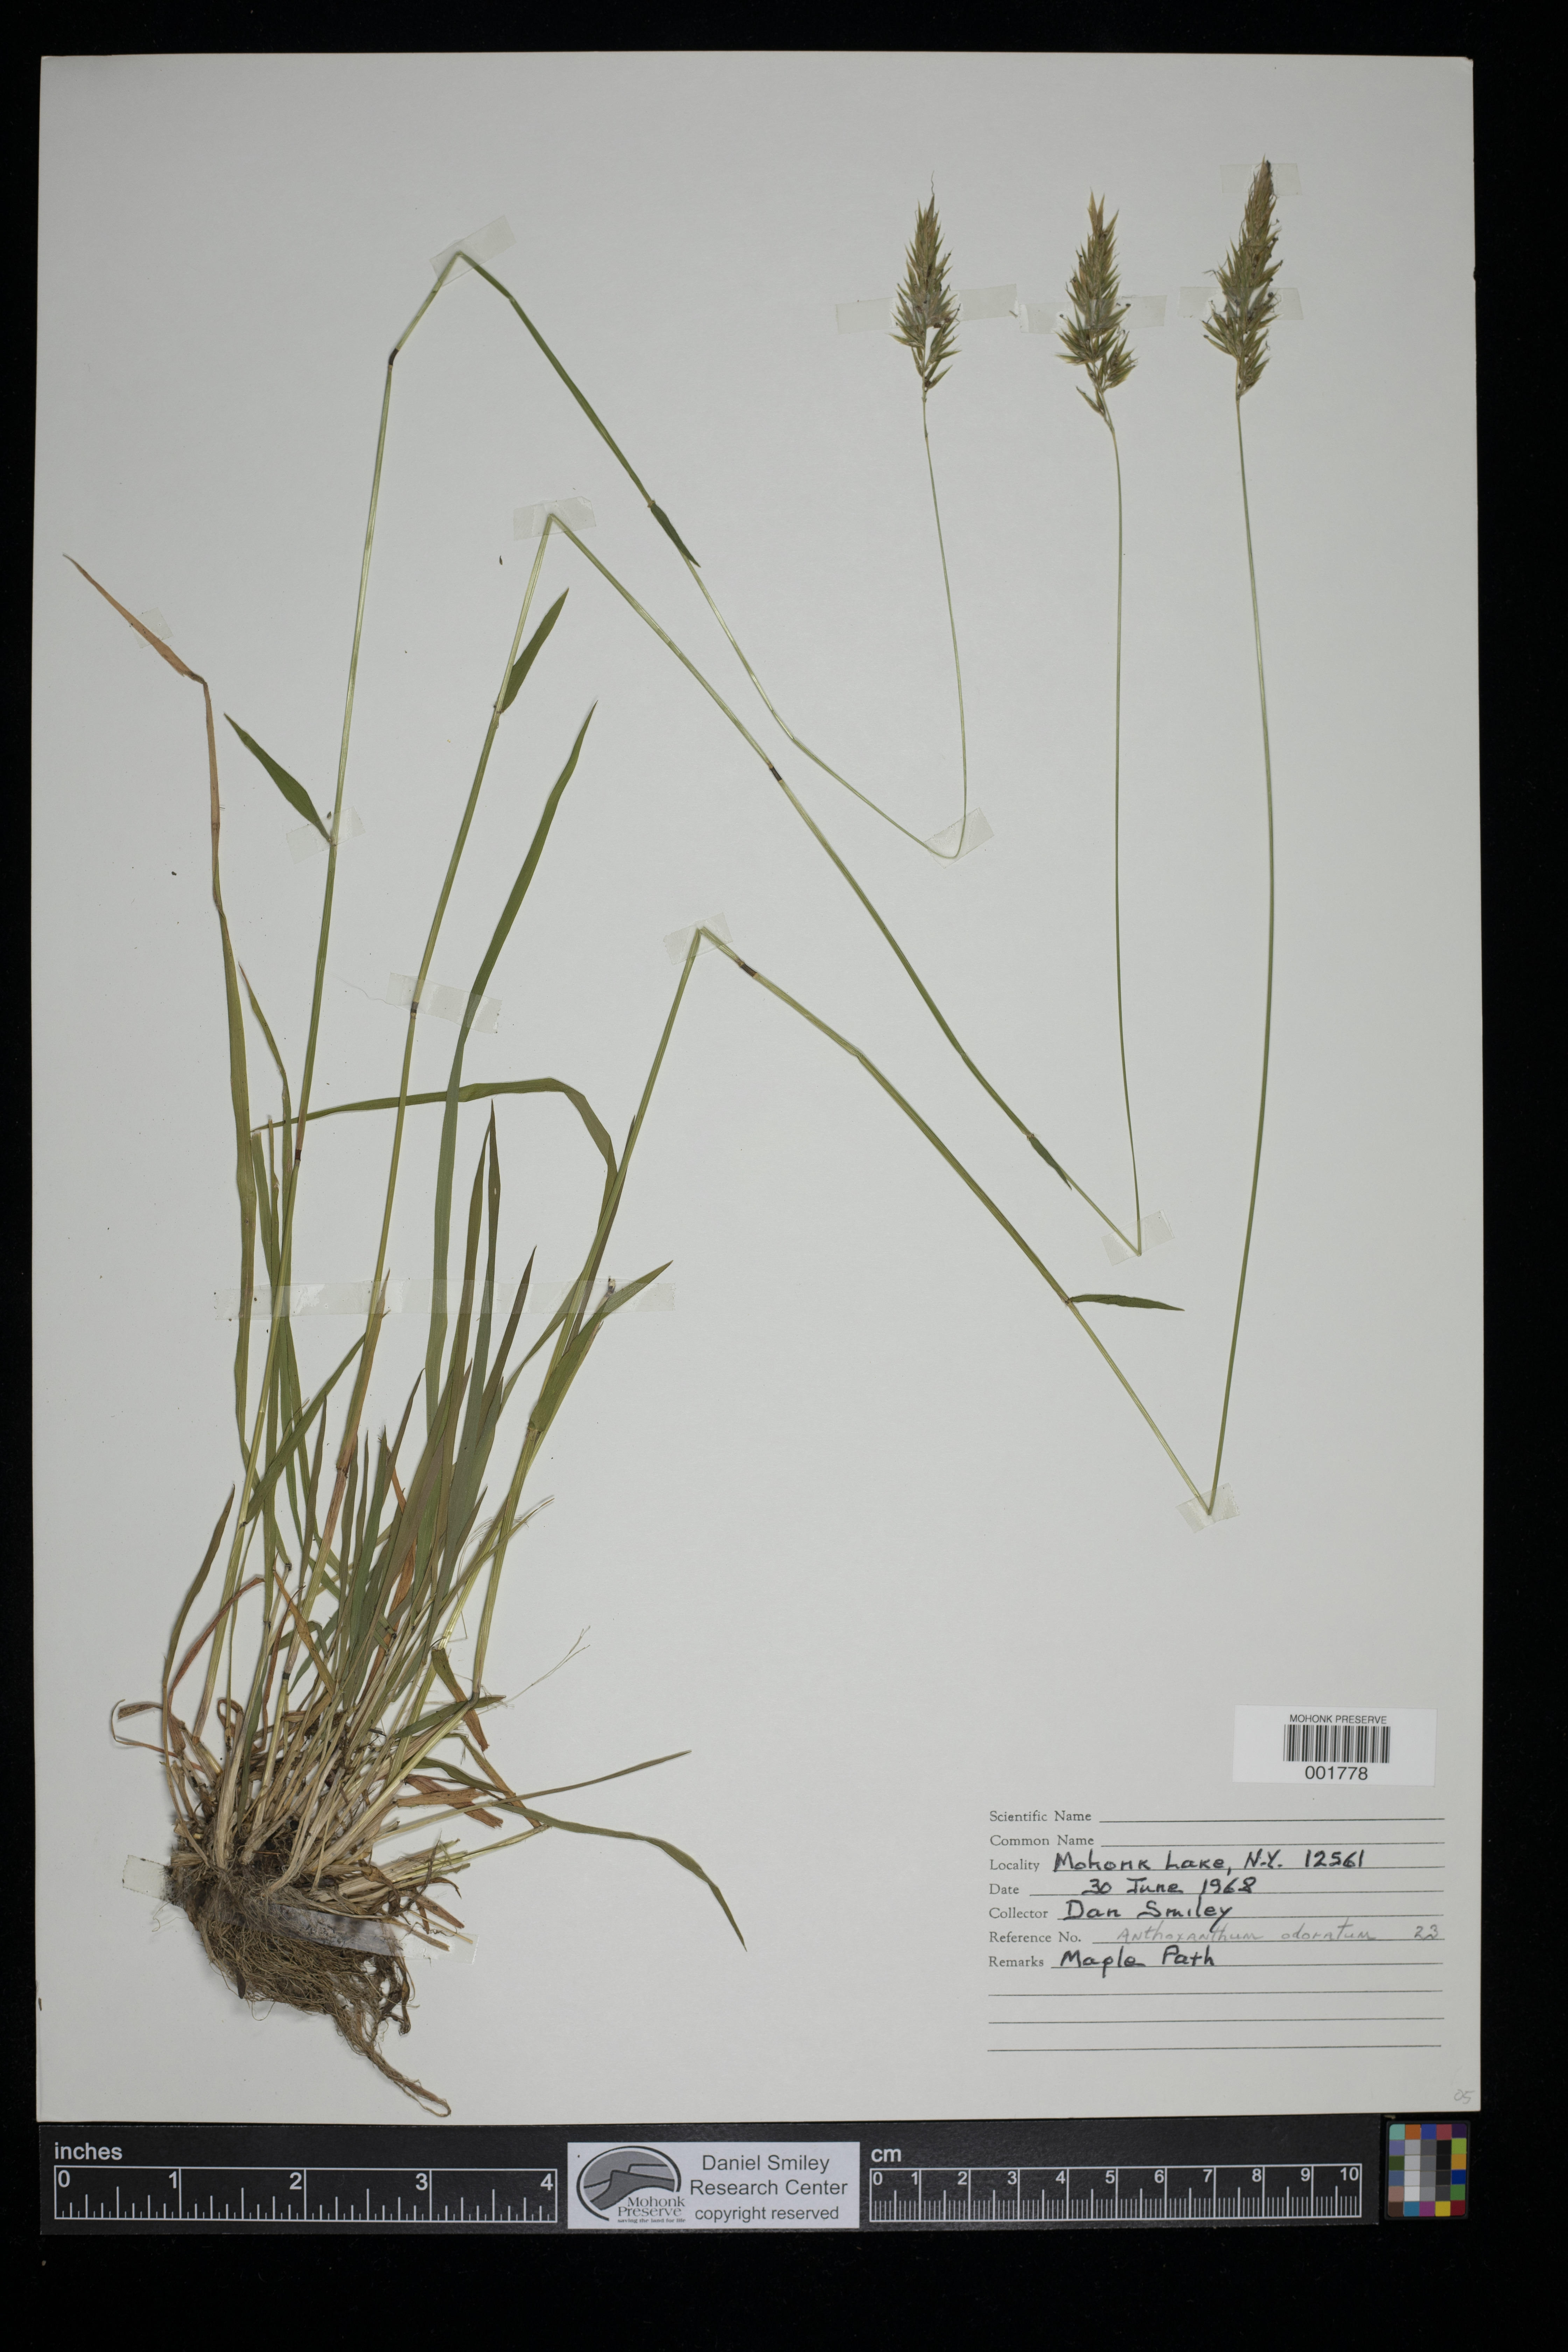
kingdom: Plantae
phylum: Tracheophyta
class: Liliopsida
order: Poales
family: Poaceae
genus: Anthoxanthum
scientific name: Anthoxanthum odoratum
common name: Sweet vernalgrass
